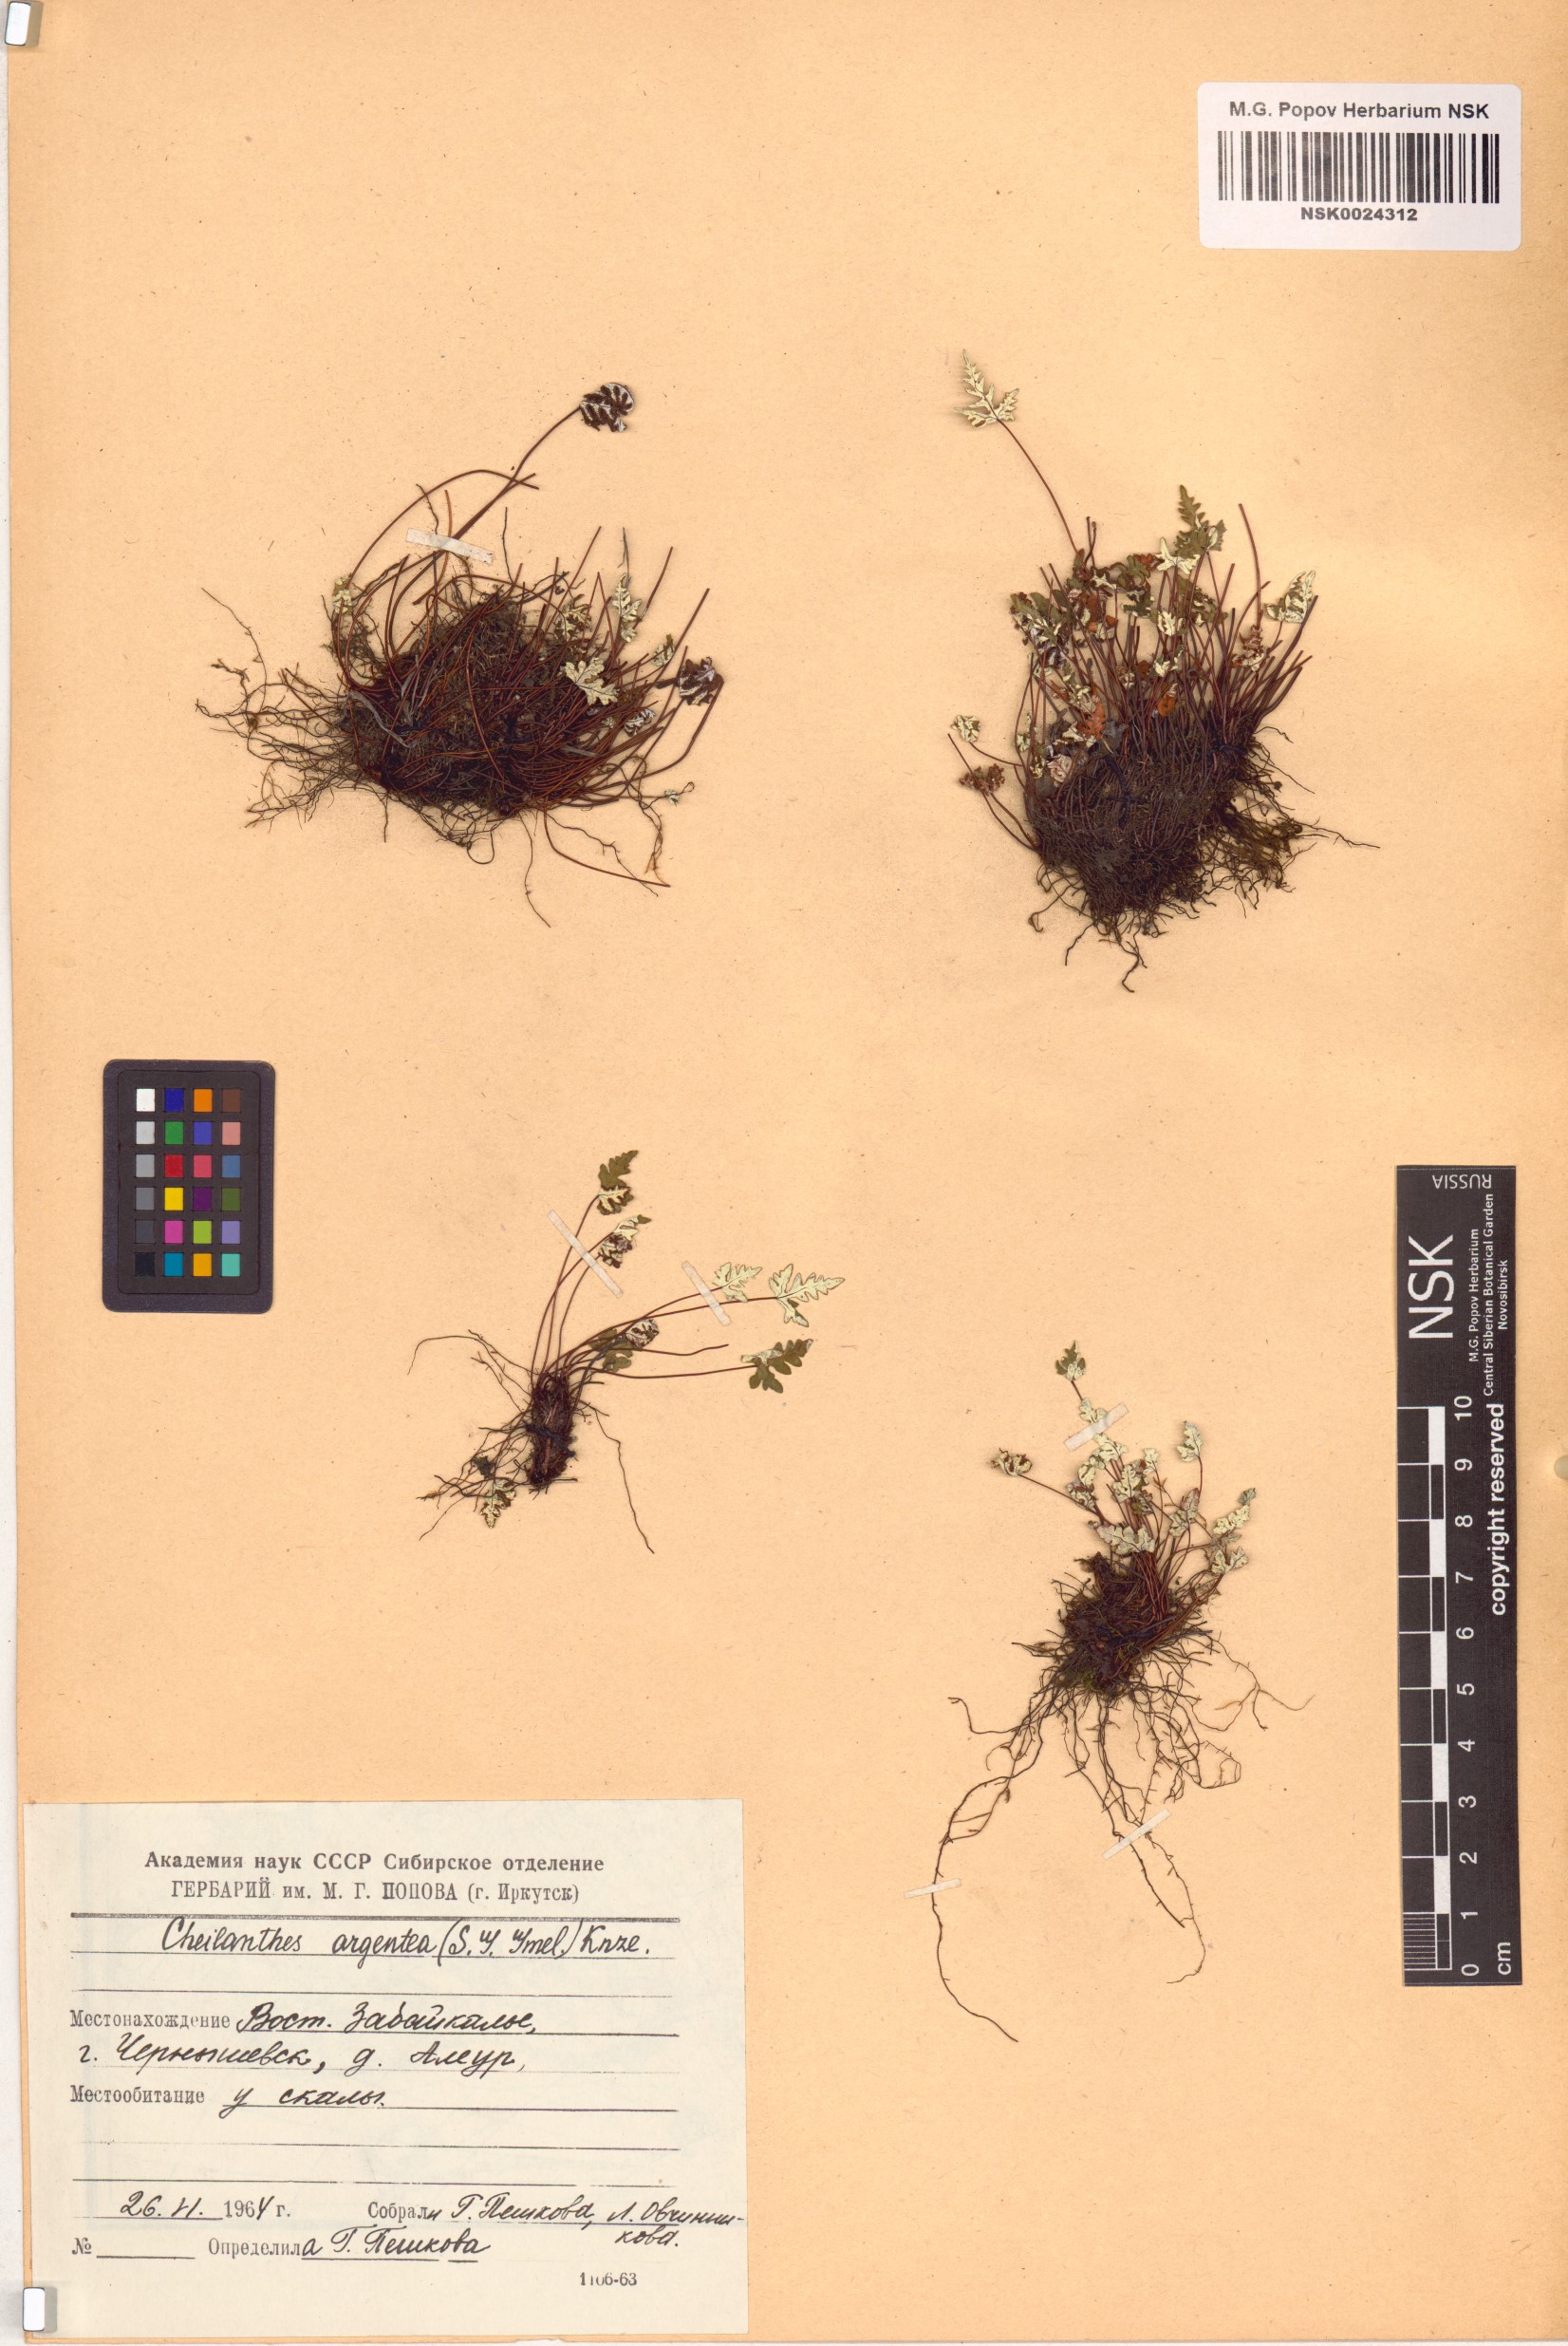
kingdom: Plantae
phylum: Tracheophyta
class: Polypodiopsida
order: Polypodiales
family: Pteridaceae
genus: Aleuritopteris
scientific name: Aleuritopteris argentea
